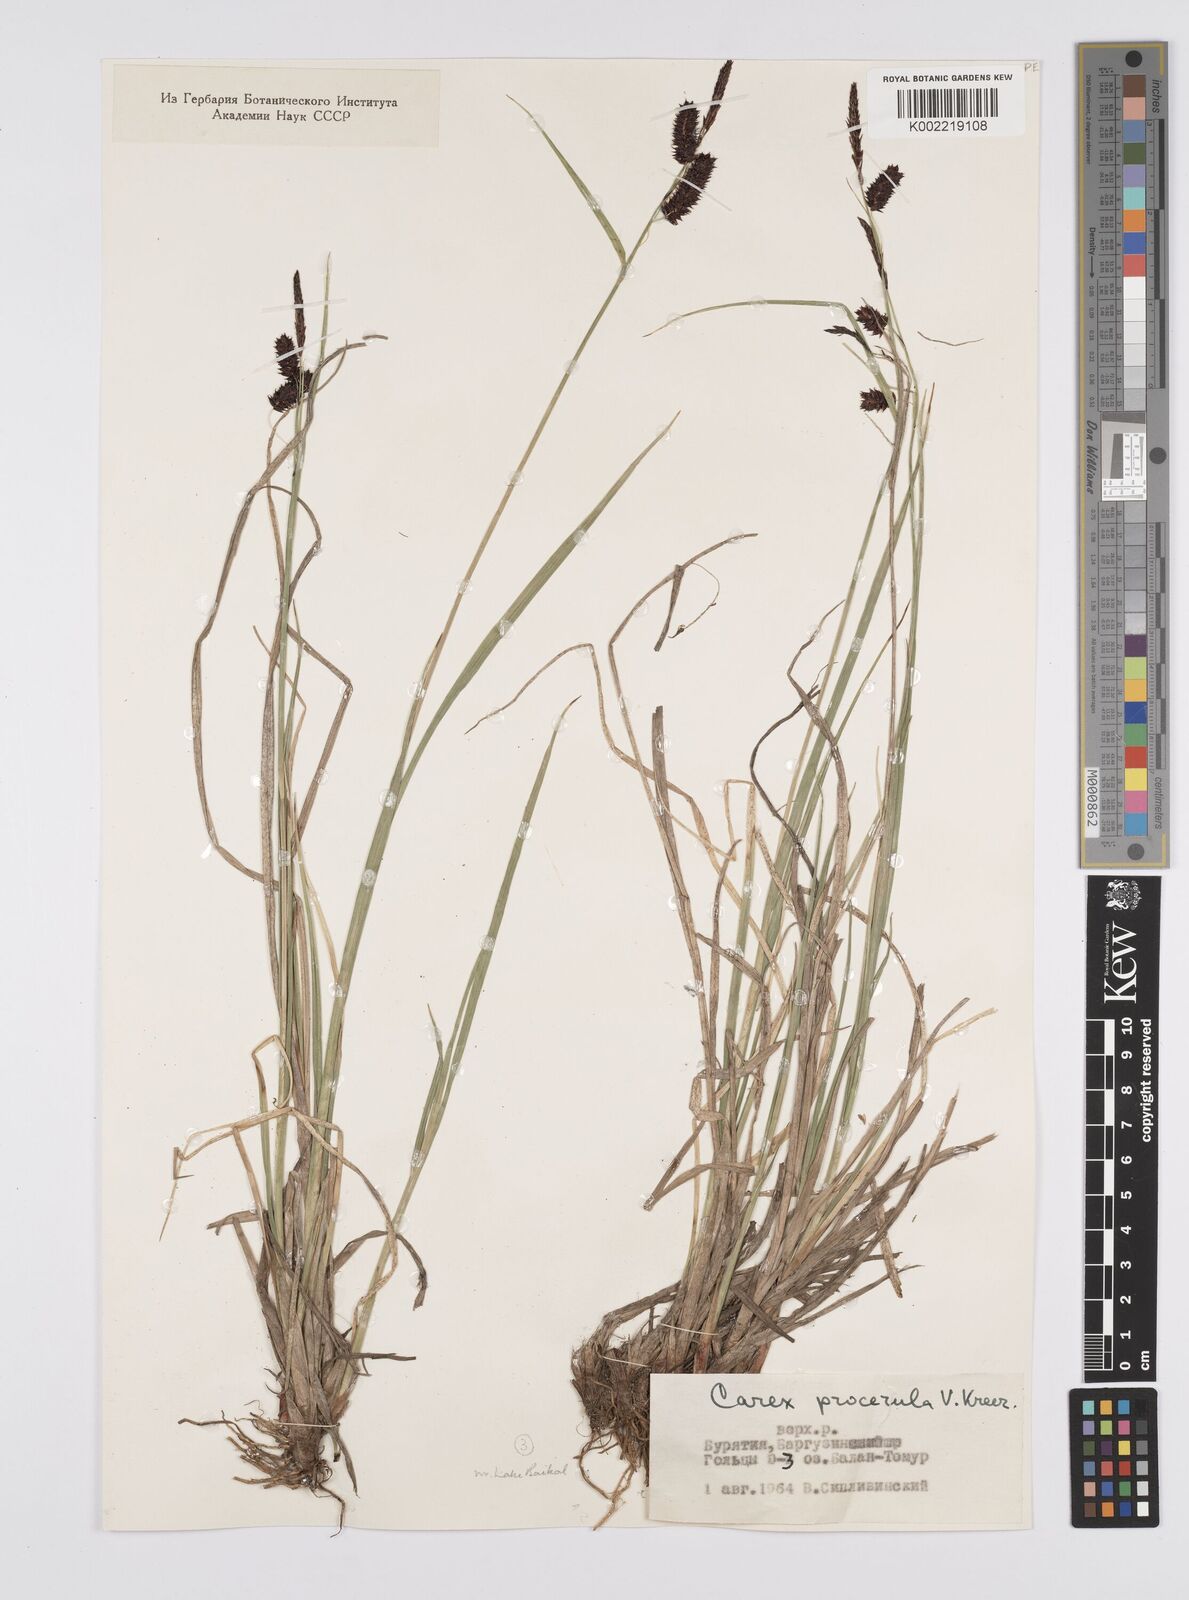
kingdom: Plantae
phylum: Tracheophyta
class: Liliopsida
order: Poales
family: Cyperaceae
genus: Carex
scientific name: Carex saxatilis
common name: Russet sedge
